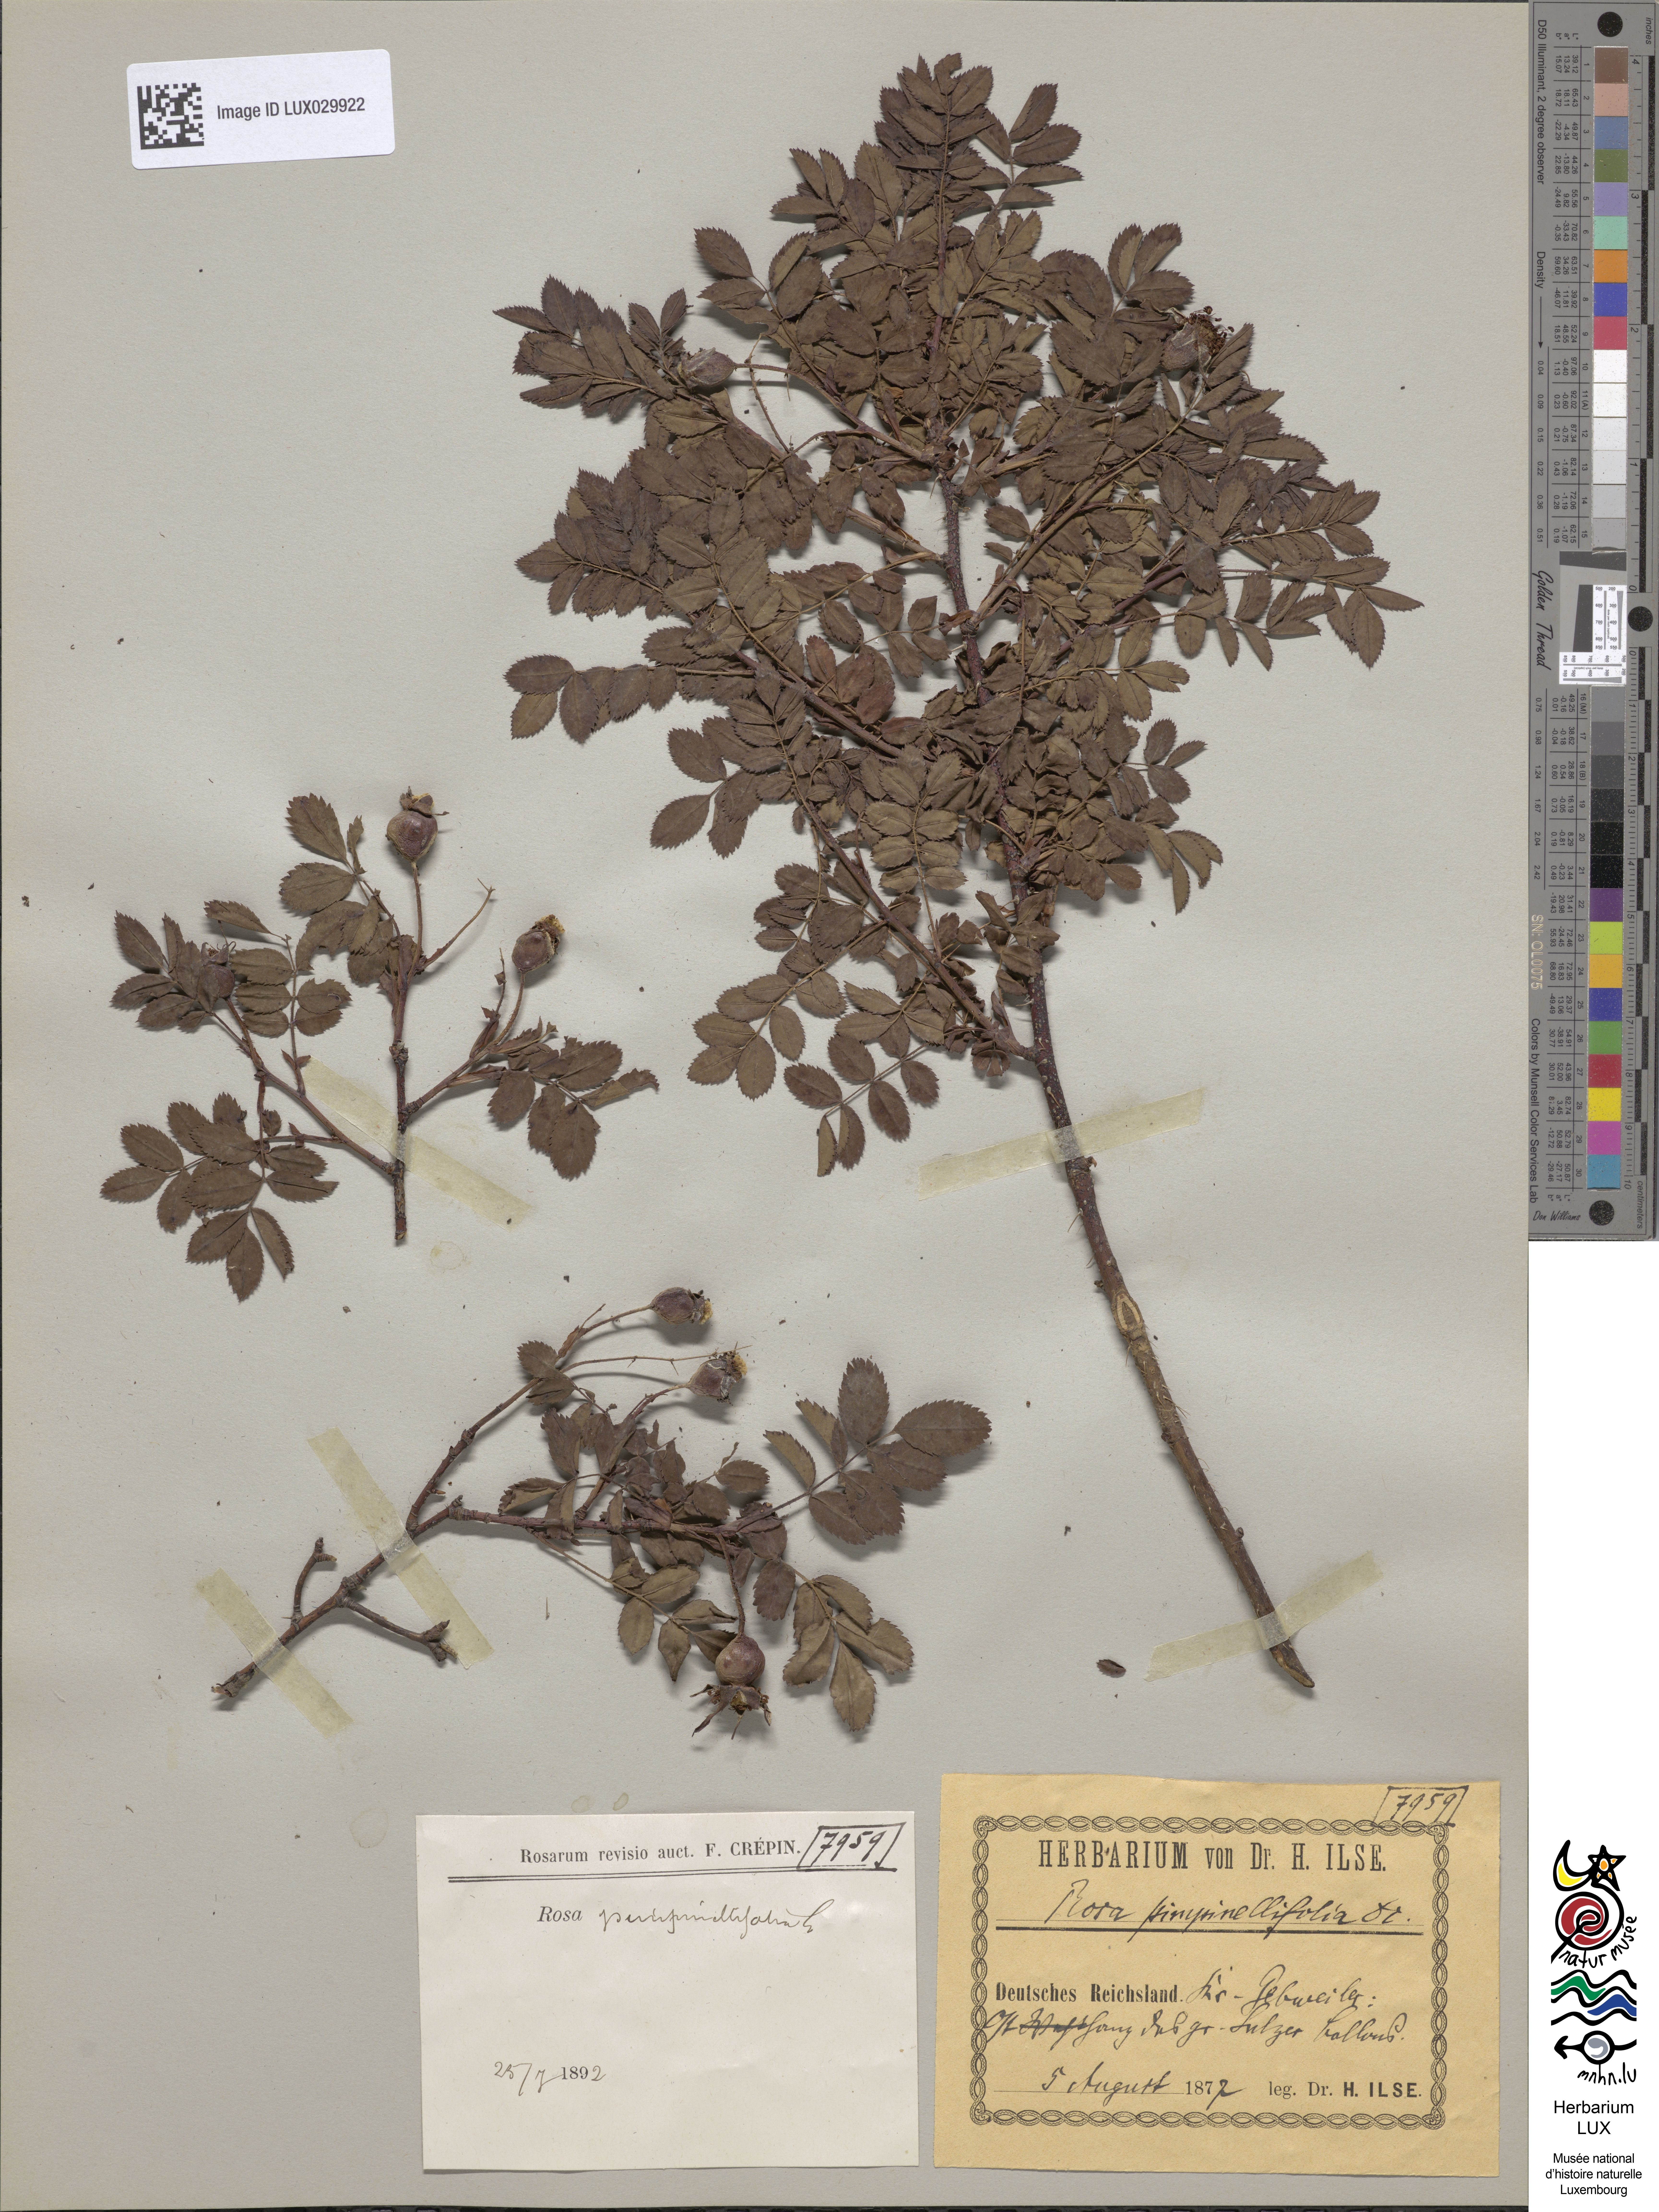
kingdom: Plantae
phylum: Tracheophyta
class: Magnoliopsida
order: Rosales
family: Rosaceae
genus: Rosa
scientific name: Rosa
